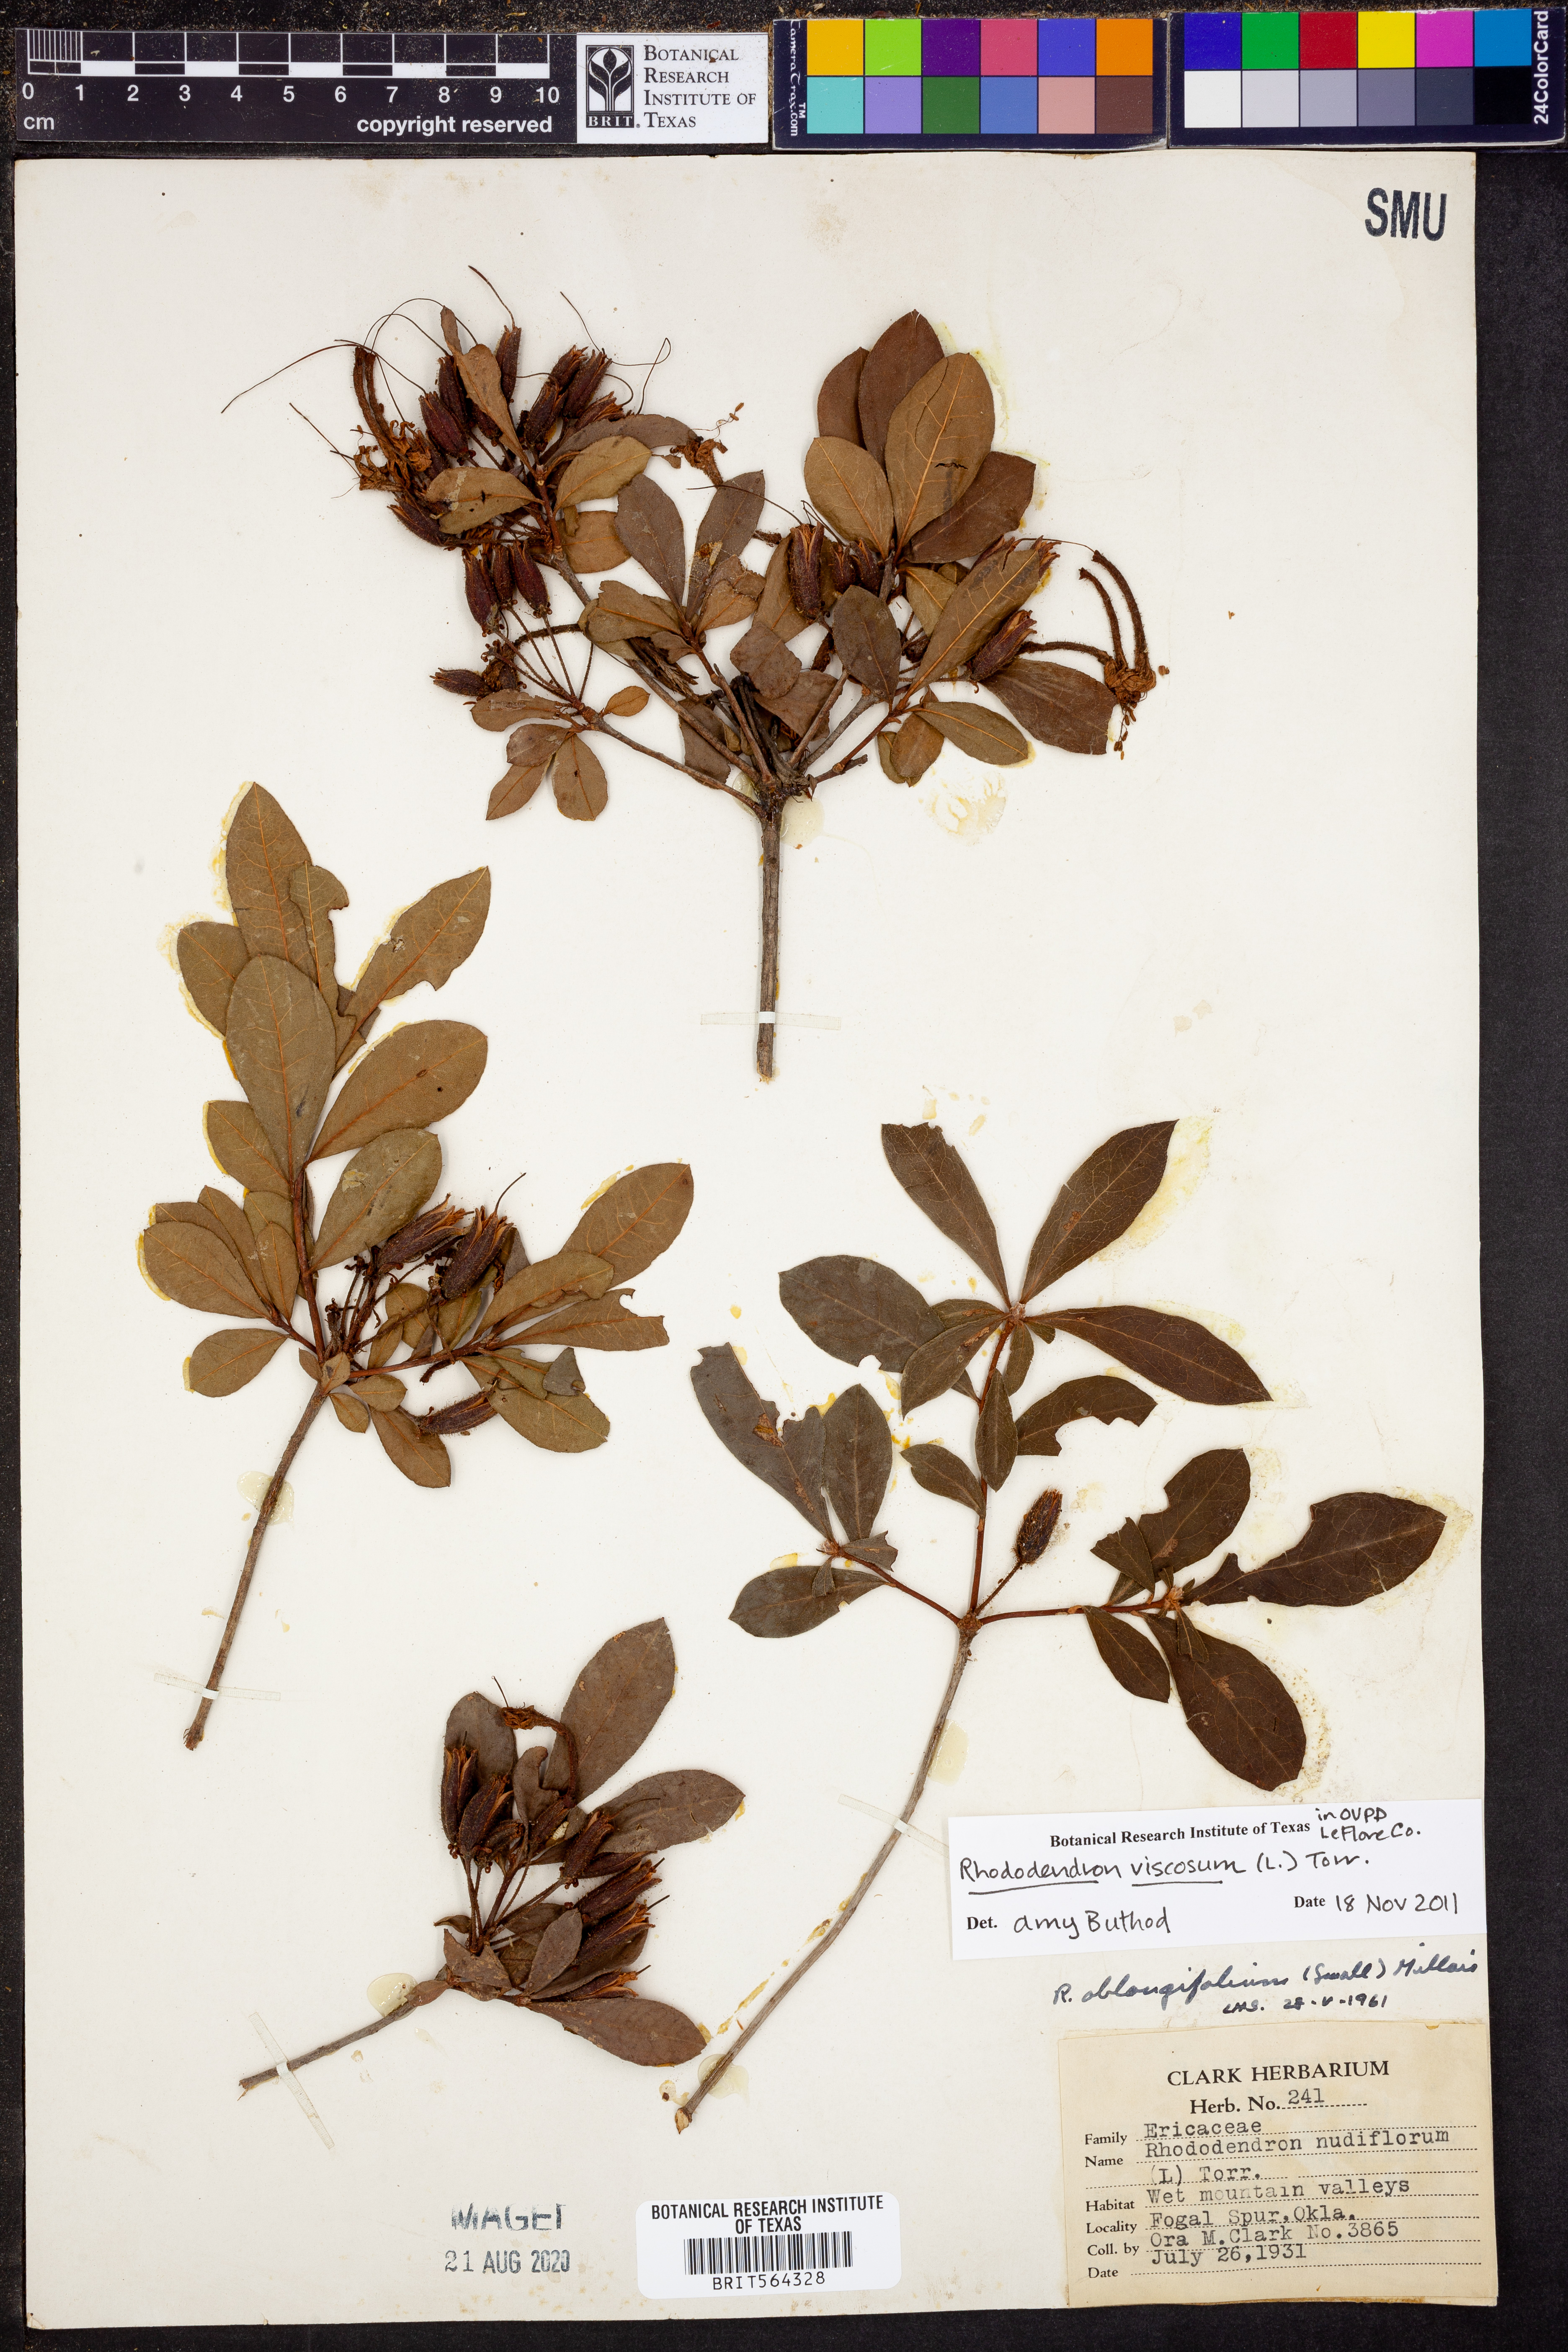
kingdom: Plantae
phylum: Tracheophyta
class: Magnoliopsida
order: Ericales
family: Ericaceae
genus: Rhododendron
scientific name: Rhododendron viscosum
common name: Clammy azalea
